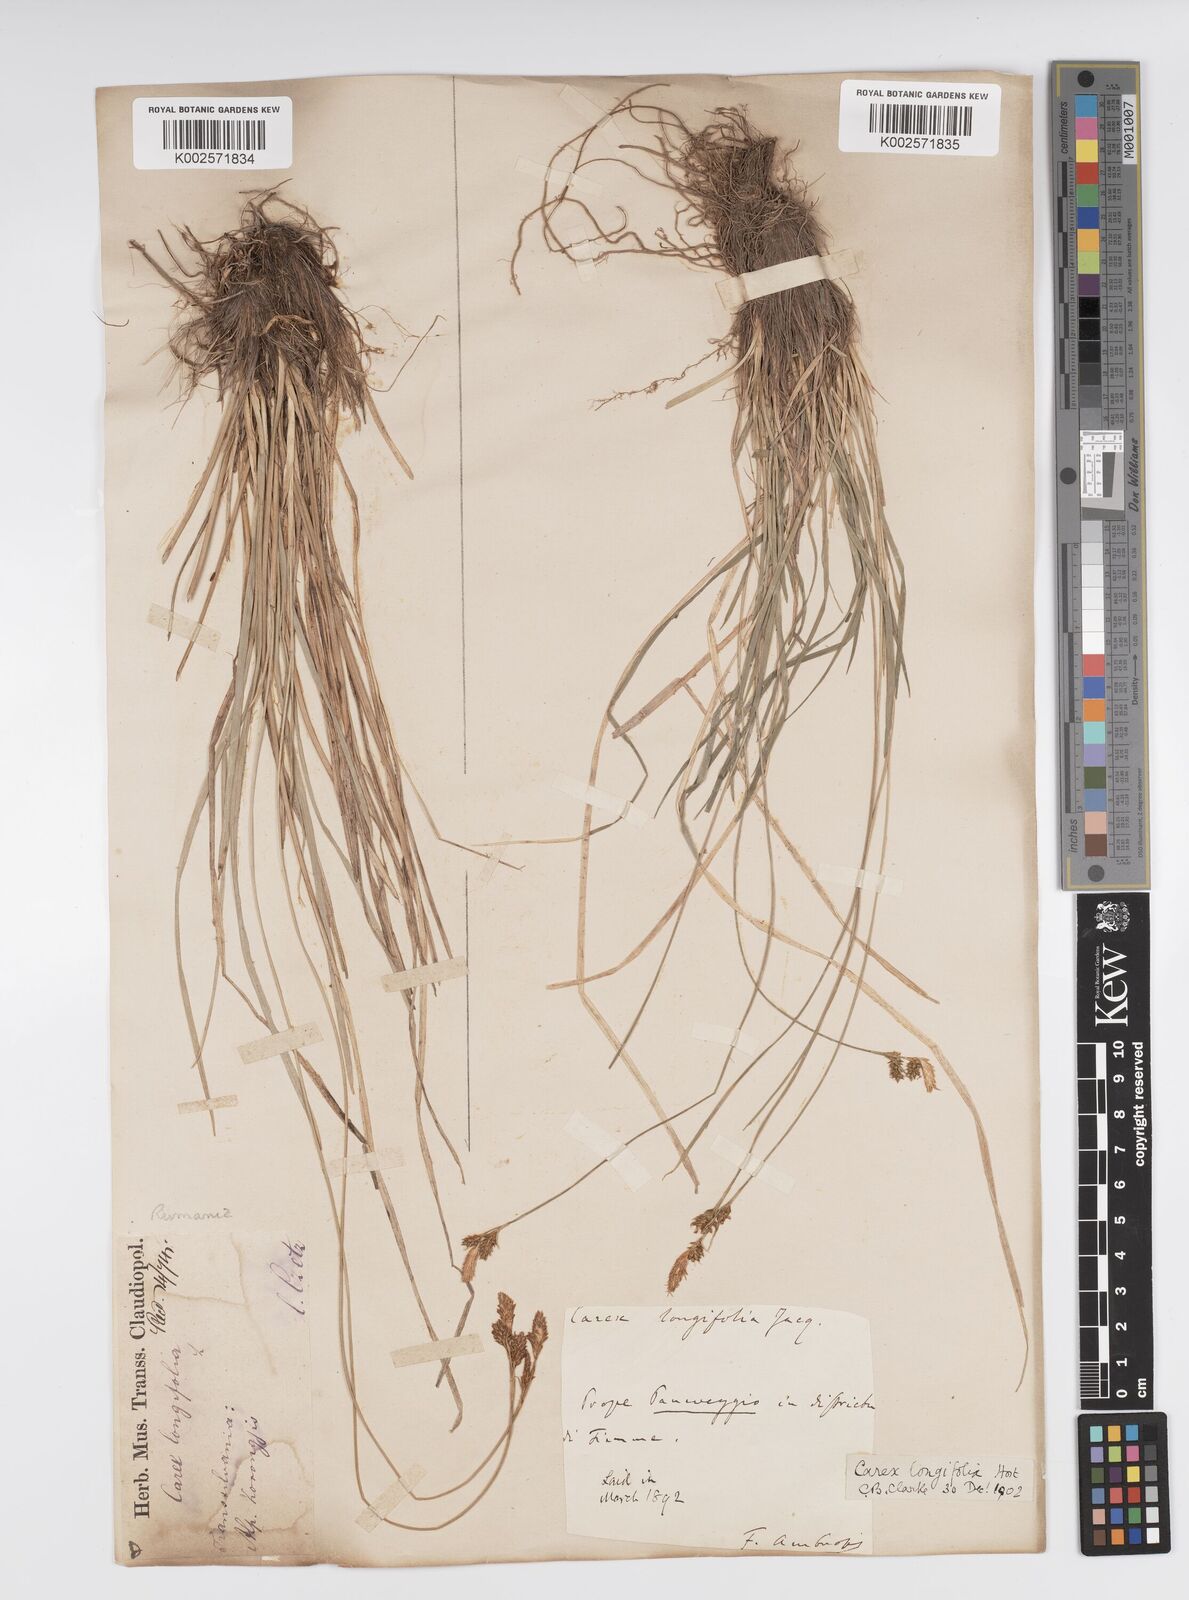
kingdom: Plantae
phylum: Tracheophyta
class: Liliopsida
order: Poales
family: Cyperaceae
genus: Carex
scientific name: Carex umbrosa
